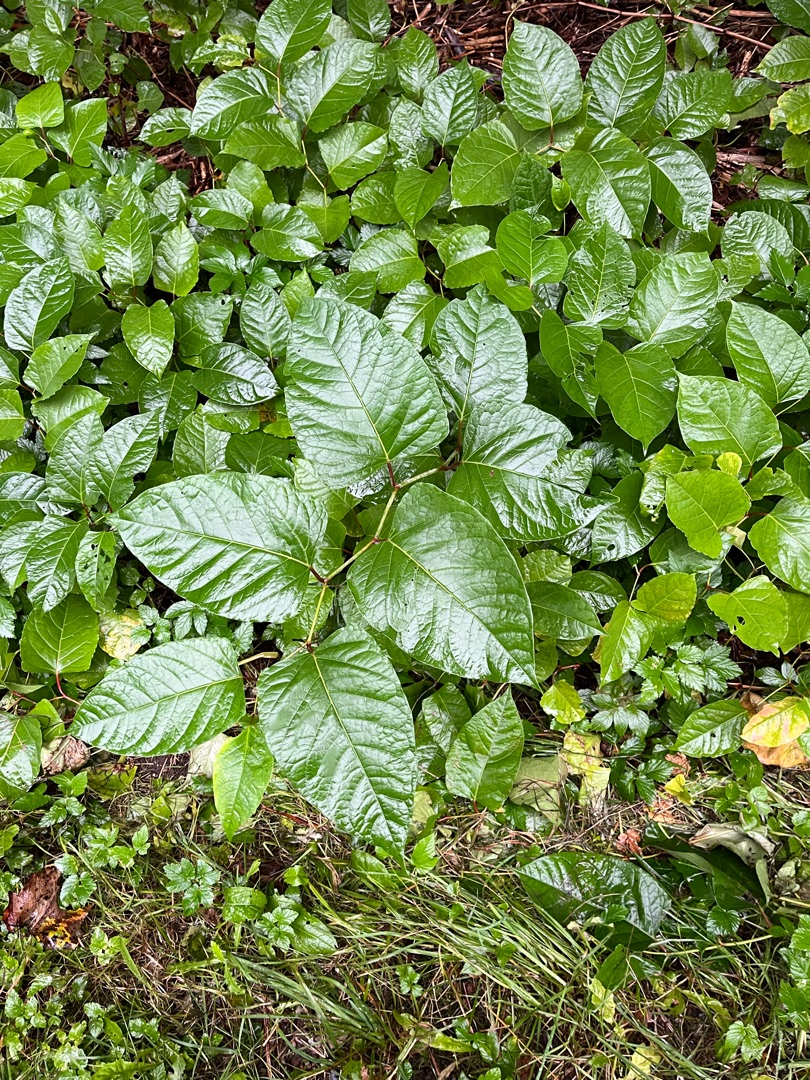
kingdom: Plantae
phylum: Tracheophyta
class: Magnoliopsida
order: Caryophyllales
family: Polygonaceae
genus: Reynoutria
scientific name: Reynoutria japonica
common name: Japan-pileurt
